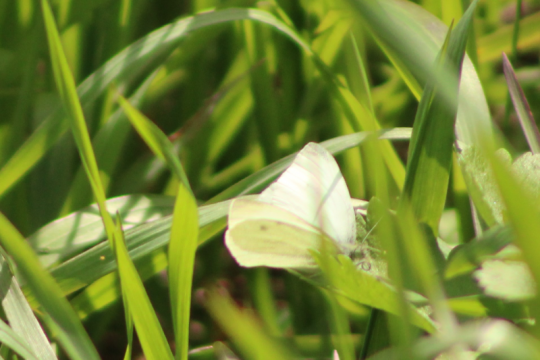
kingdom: Animalia
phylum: Arthropoda
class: Insecta
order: Lepidoptera
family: Pieridae
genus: Pieris
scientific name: Pieris rapae
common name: Cabbage White
